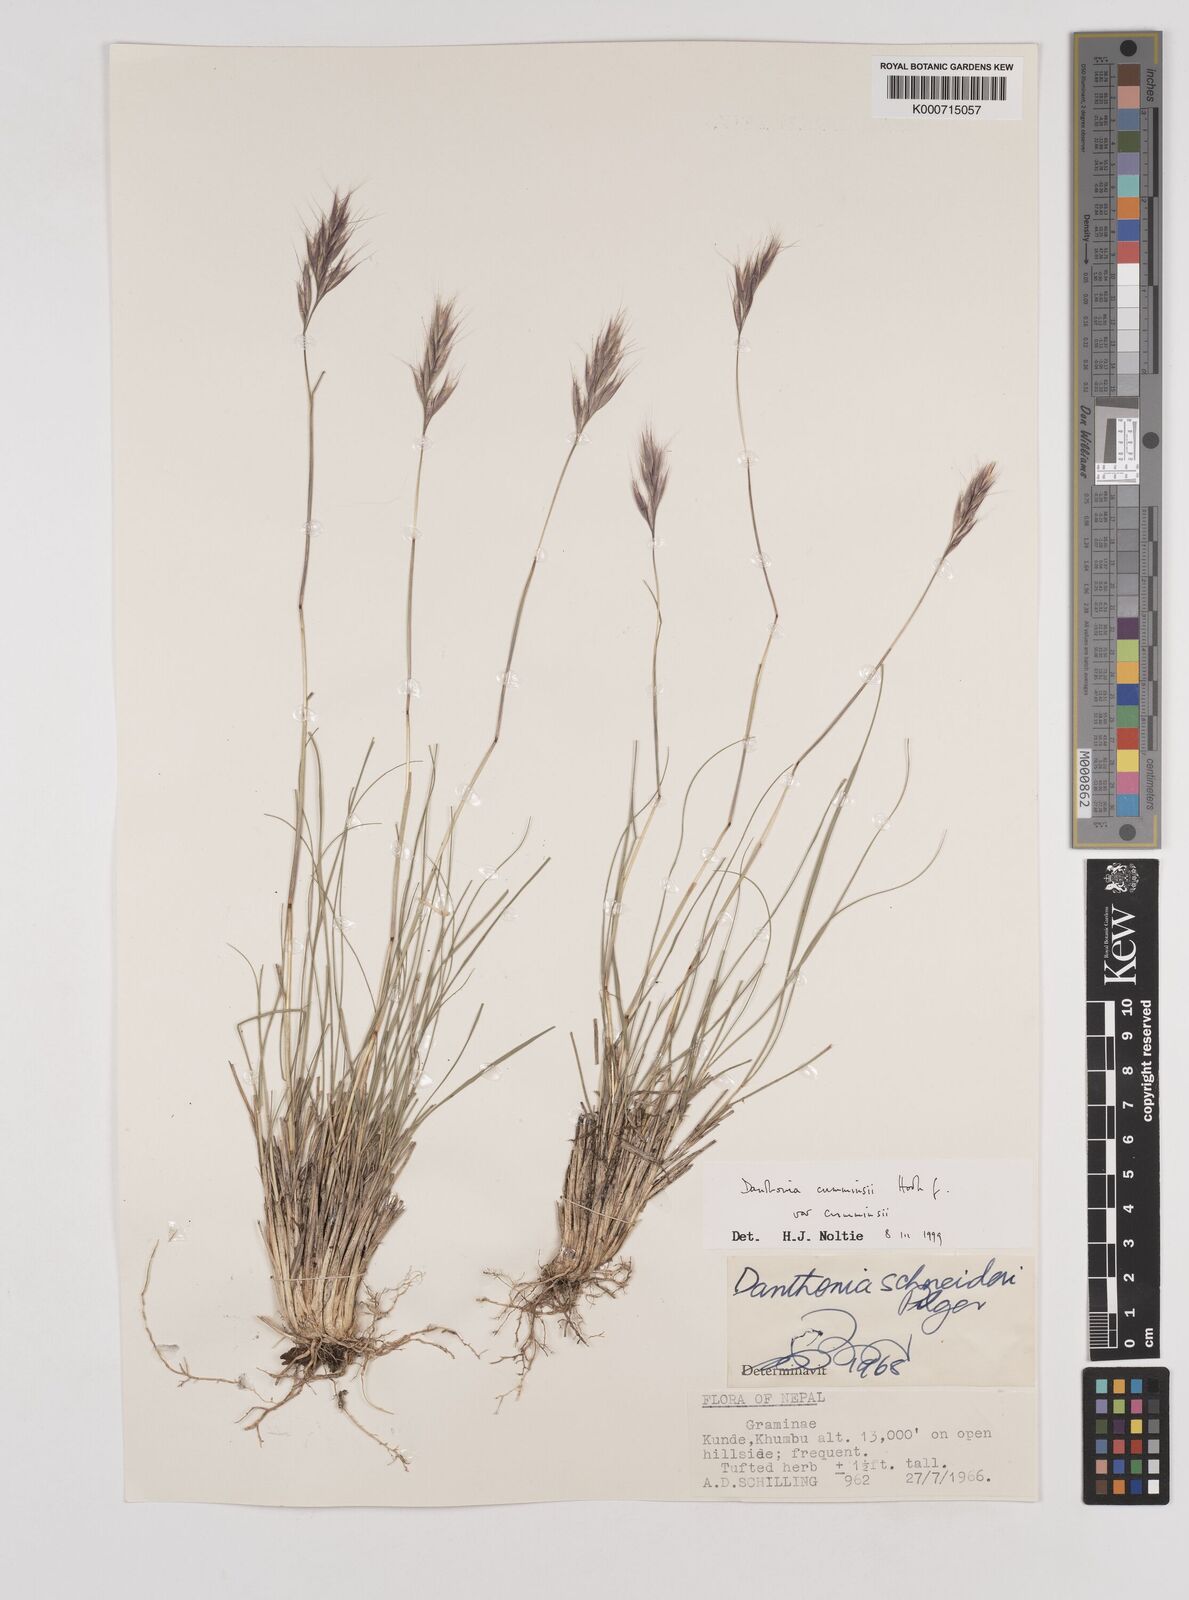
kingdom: Plantae
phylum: Tracheophyta
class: Liliopsida
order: Poales
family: Poaceae
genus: Rytidosperma
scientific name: Rytidosperma
